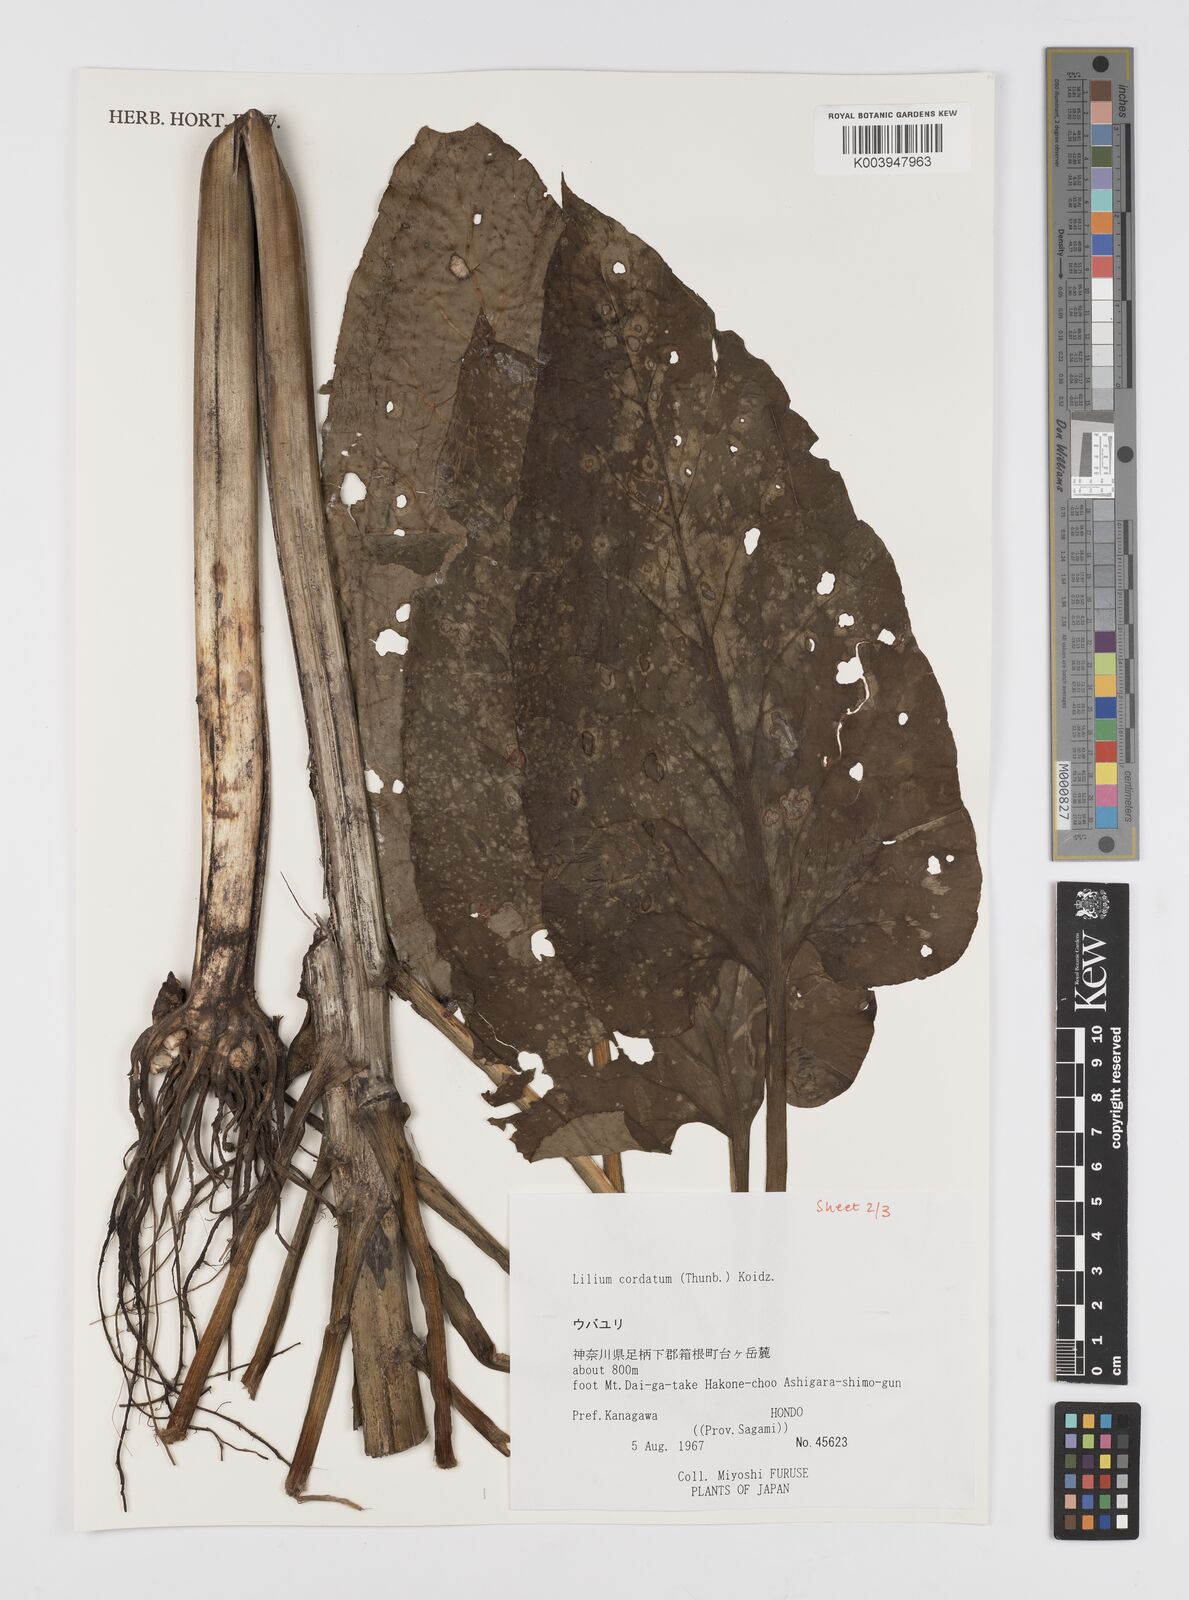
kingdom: Plantae
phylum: Tracheophyta
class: Liliopsida
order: Liliales
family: Liliaceae
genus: Cardiocrinum
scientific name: Cardiocrinum cordatum
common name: Lily
